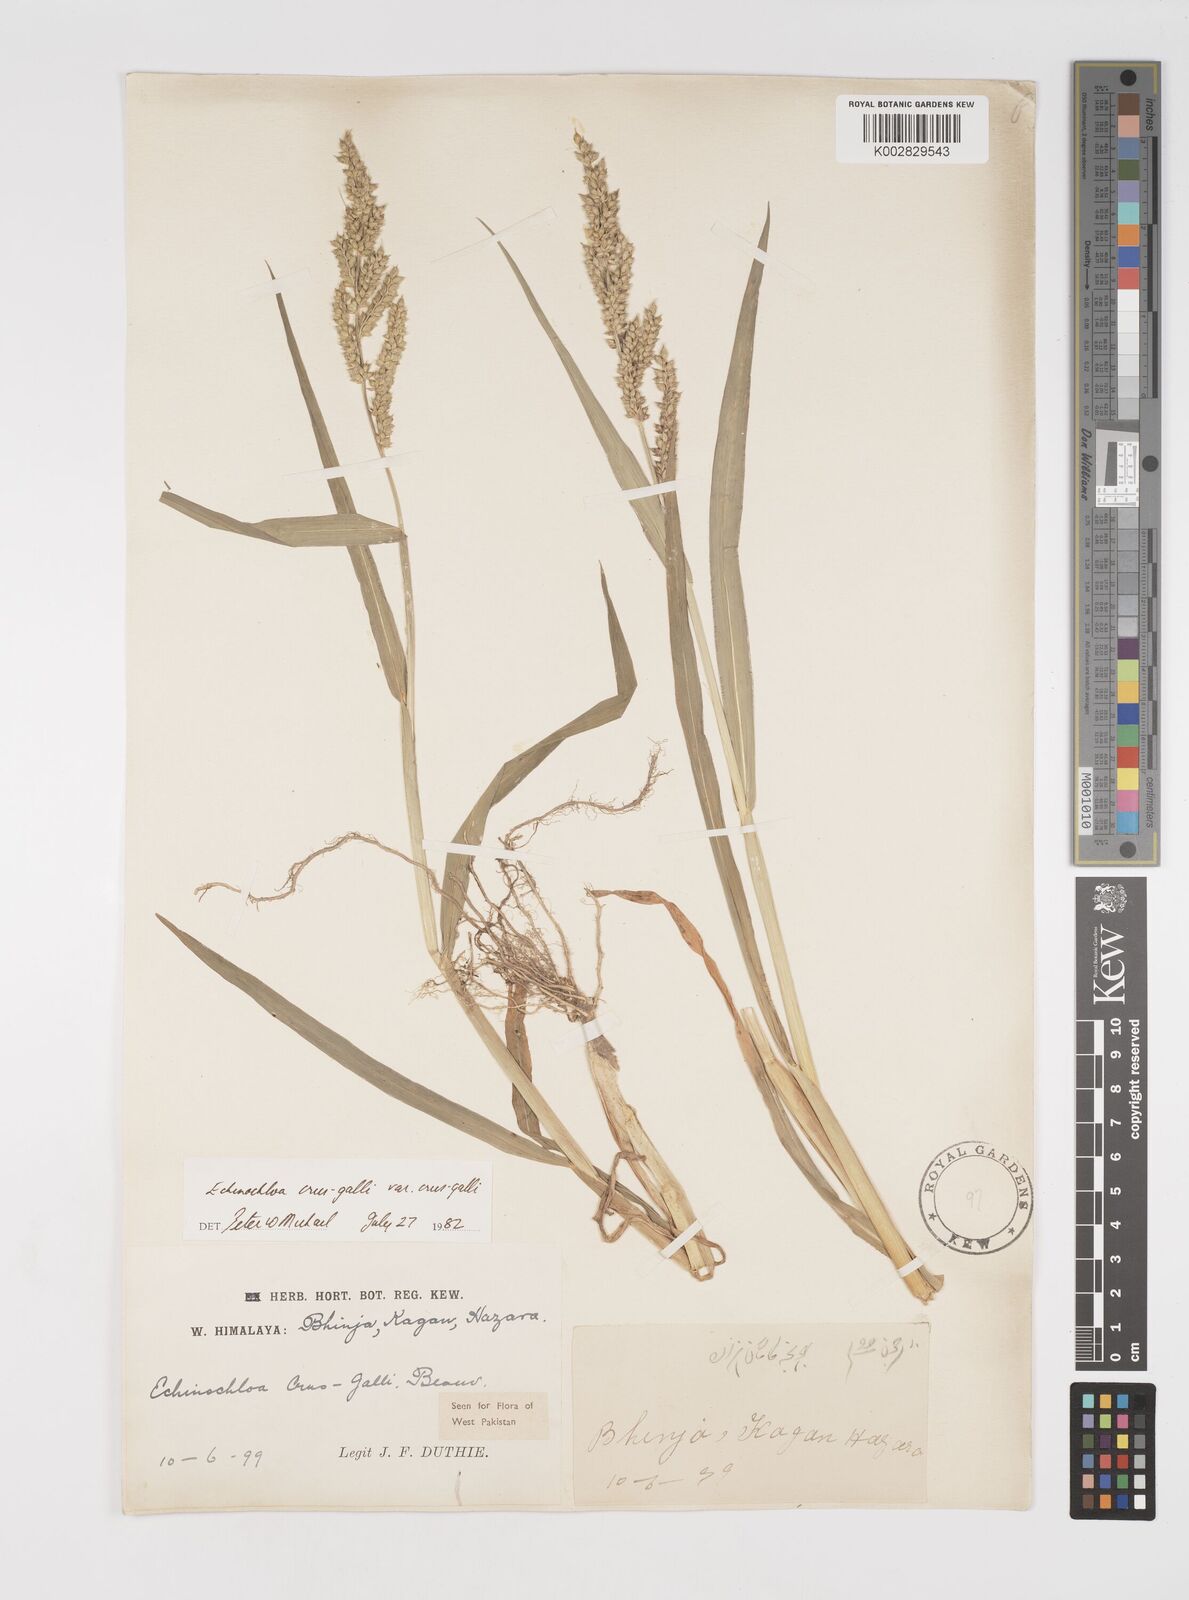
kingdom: Plantae
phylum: Tracheophyta
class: Liliopsida
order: Poales
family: Poaceae
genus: Echinochloa
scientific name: Echinochloa crus-galli
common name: Cockspur
